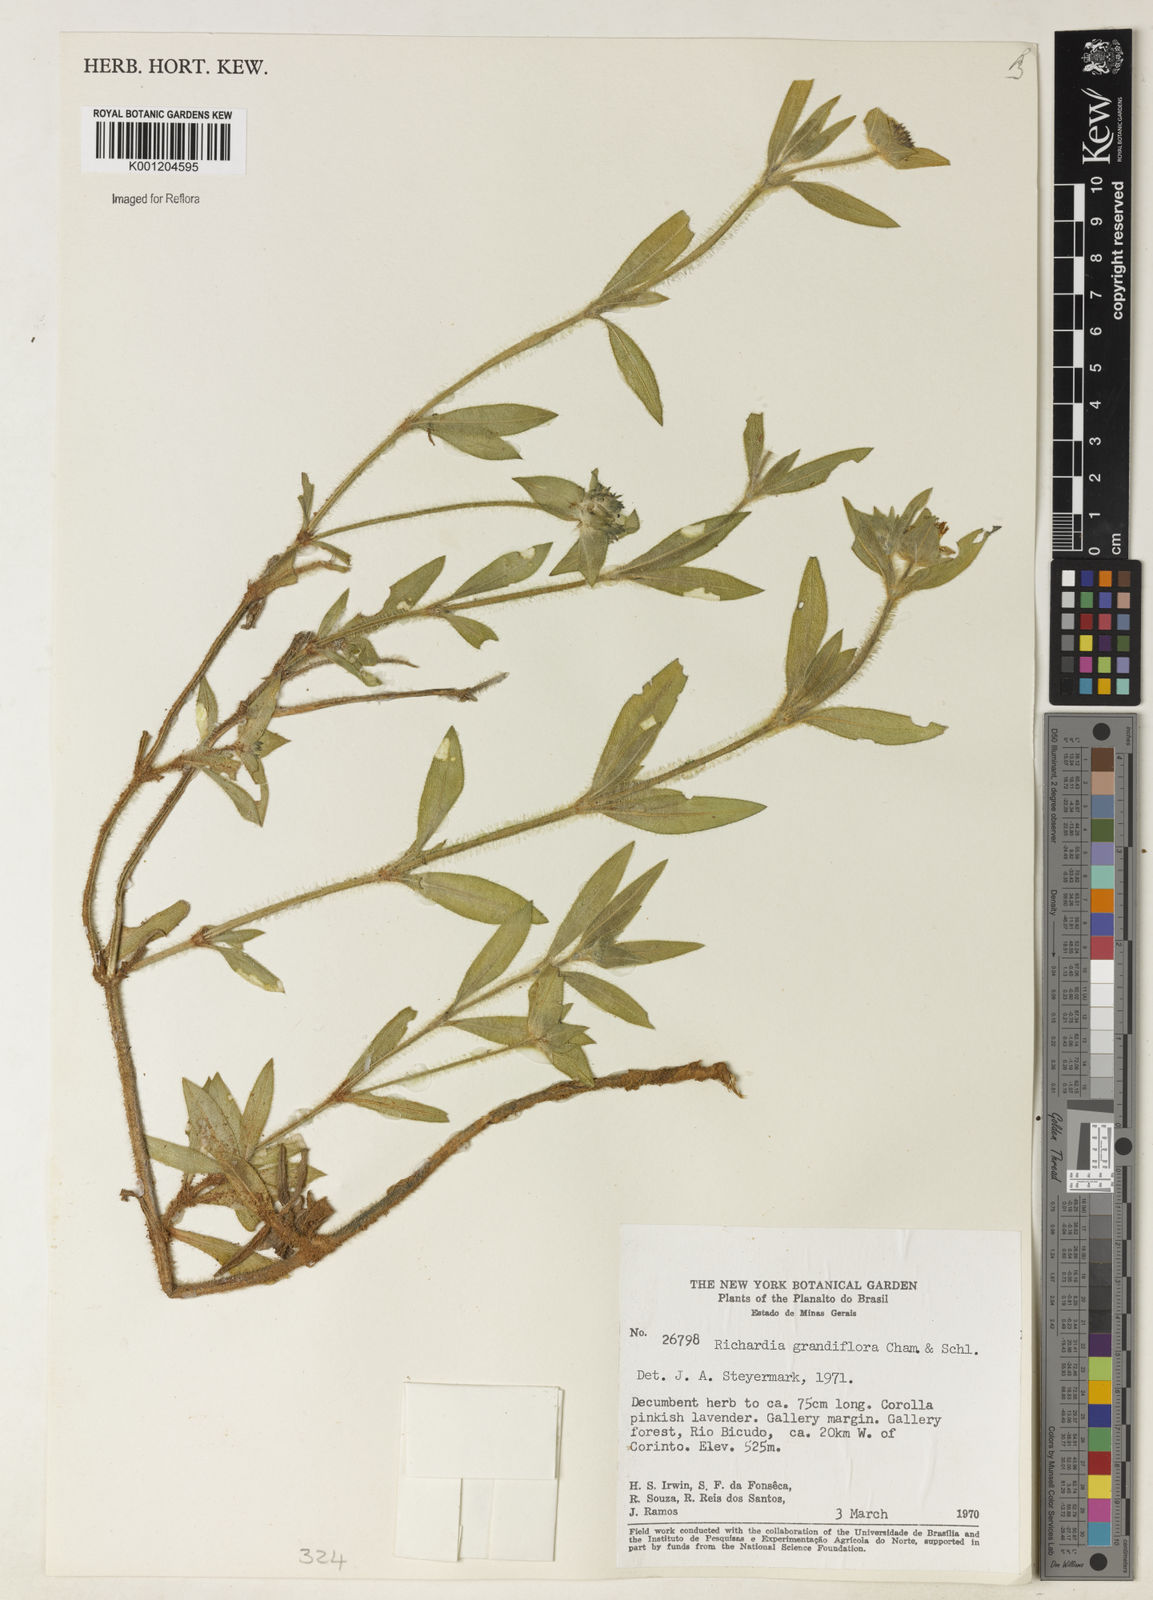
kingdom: Plantae
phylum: Tracheophyta
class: Magnoliopsida
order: Gentianales
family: Rubiaceae
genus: Richardia
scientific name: Richardia grandiflora
